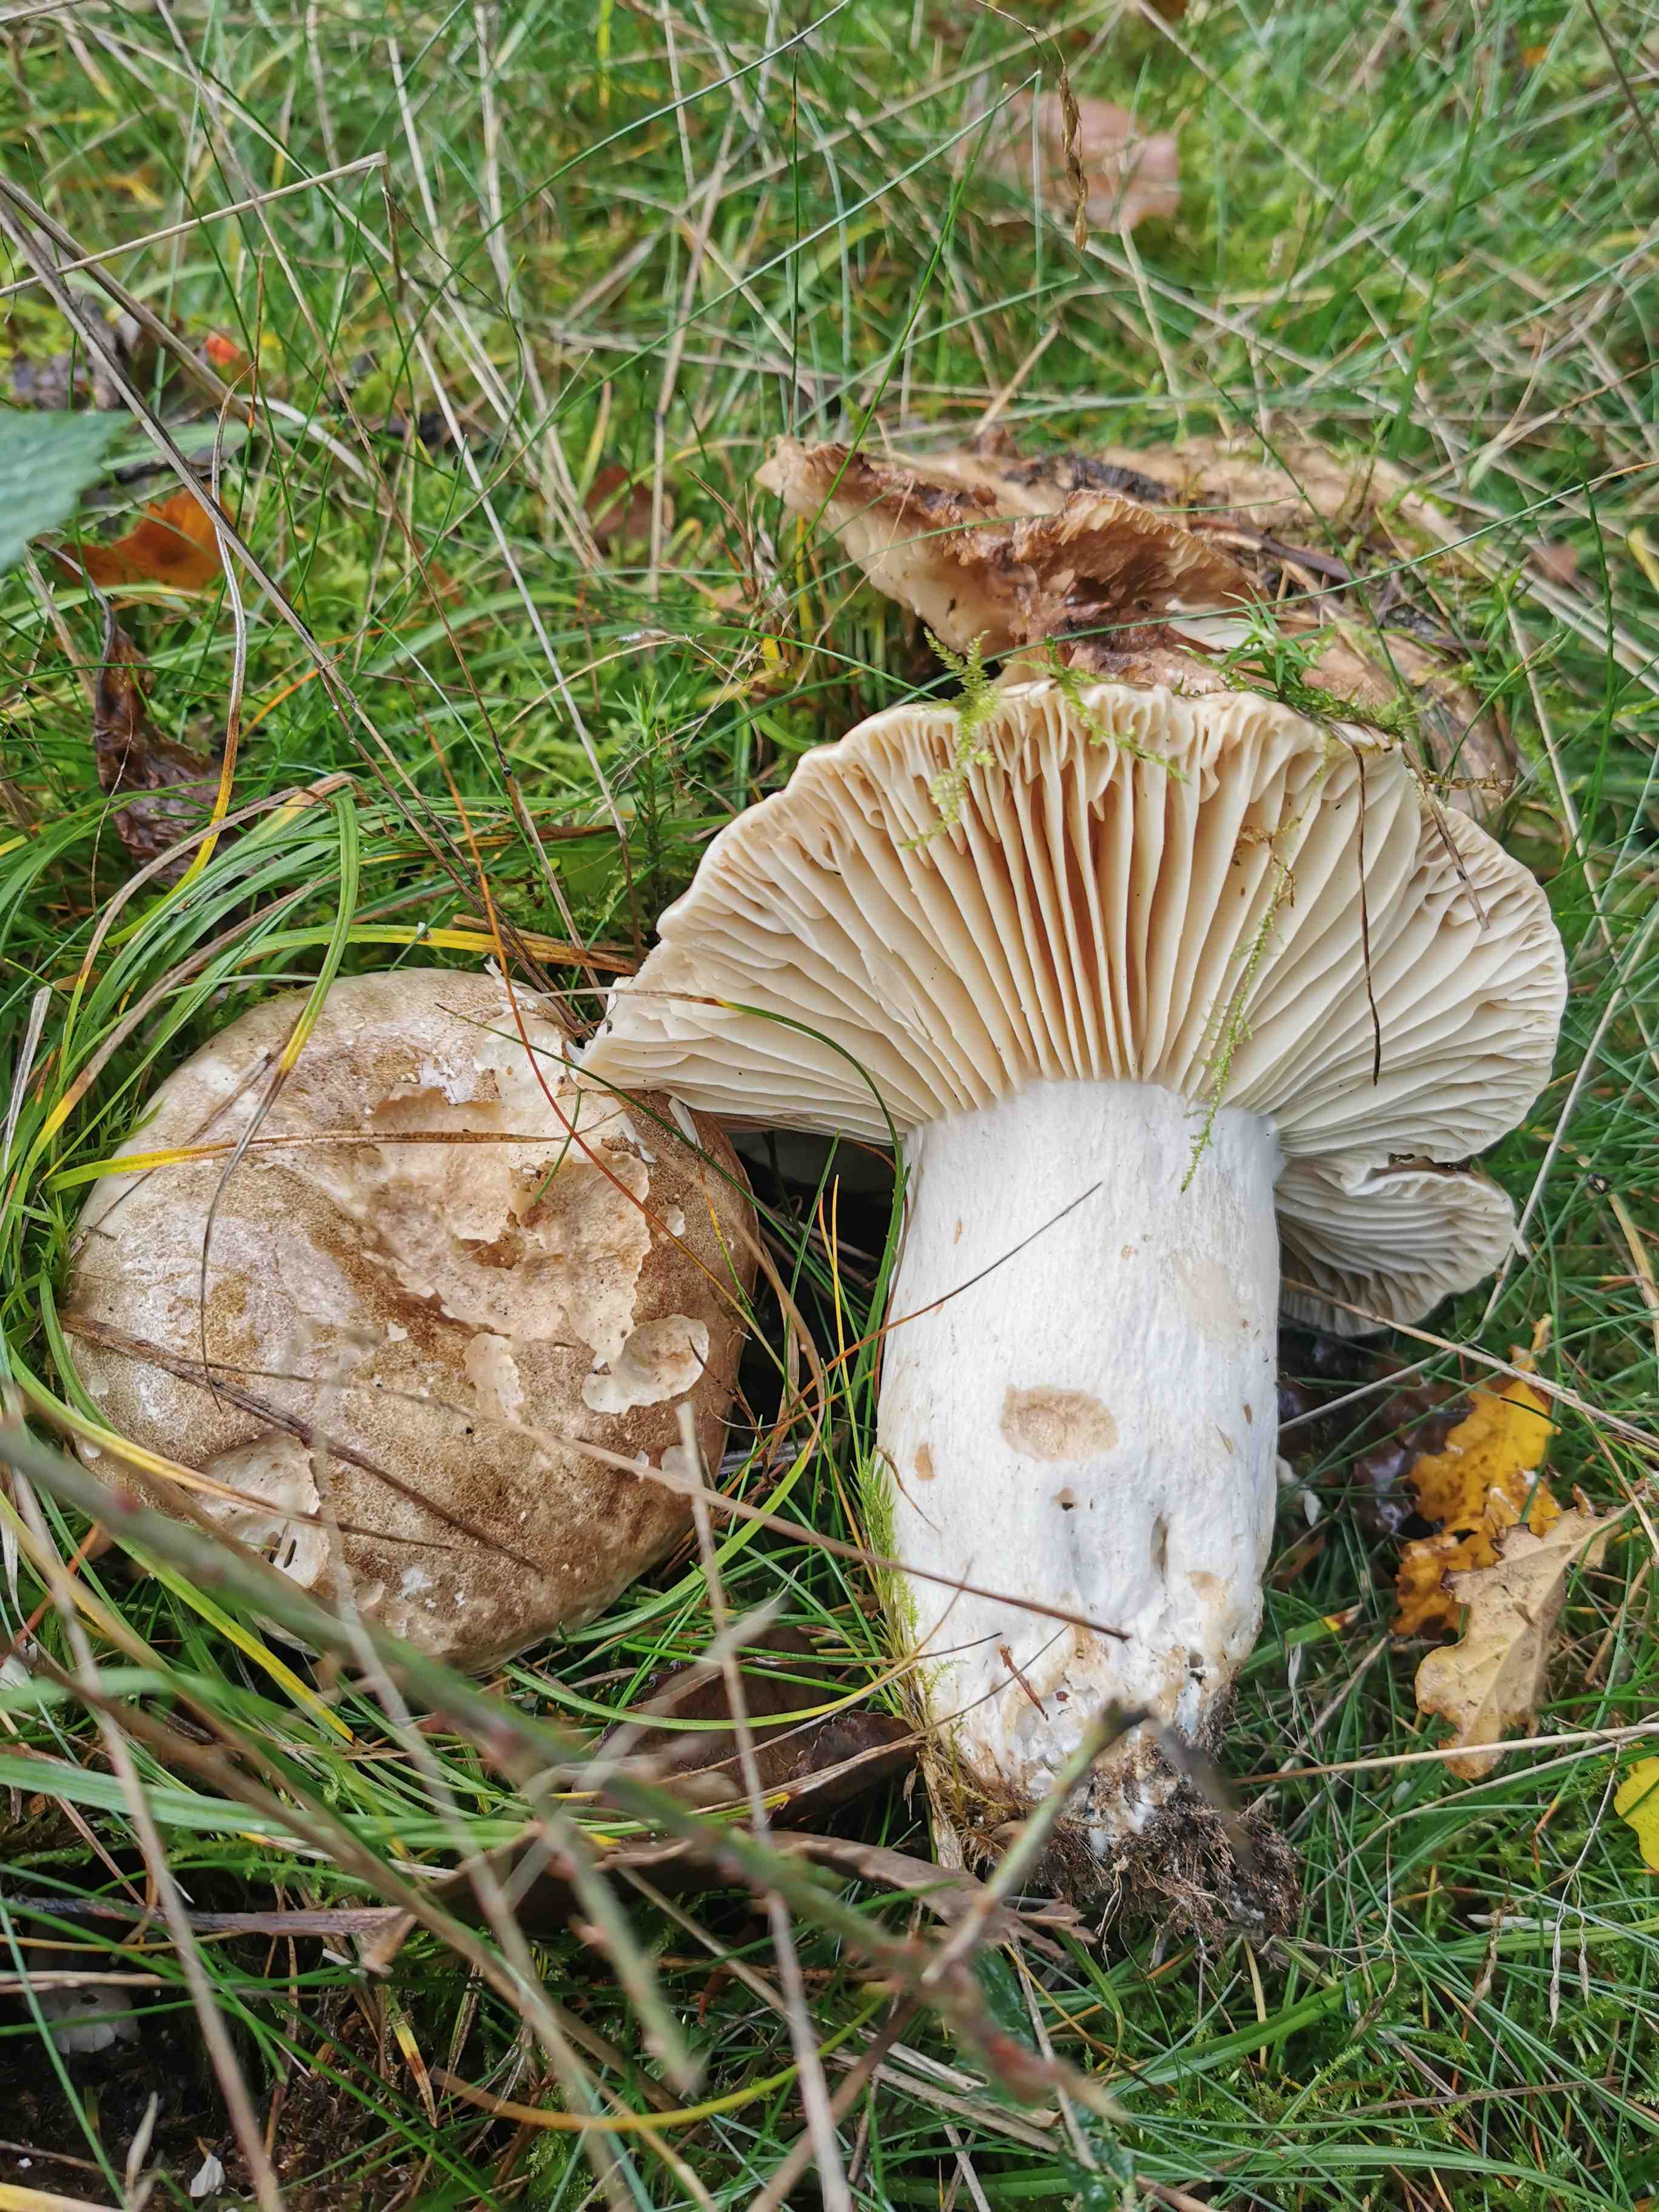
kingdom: Fungi
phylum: Basidiomycota
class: Agaricomycetes
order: Russulales
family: Russulaceae
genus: Russula
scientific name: Russula
